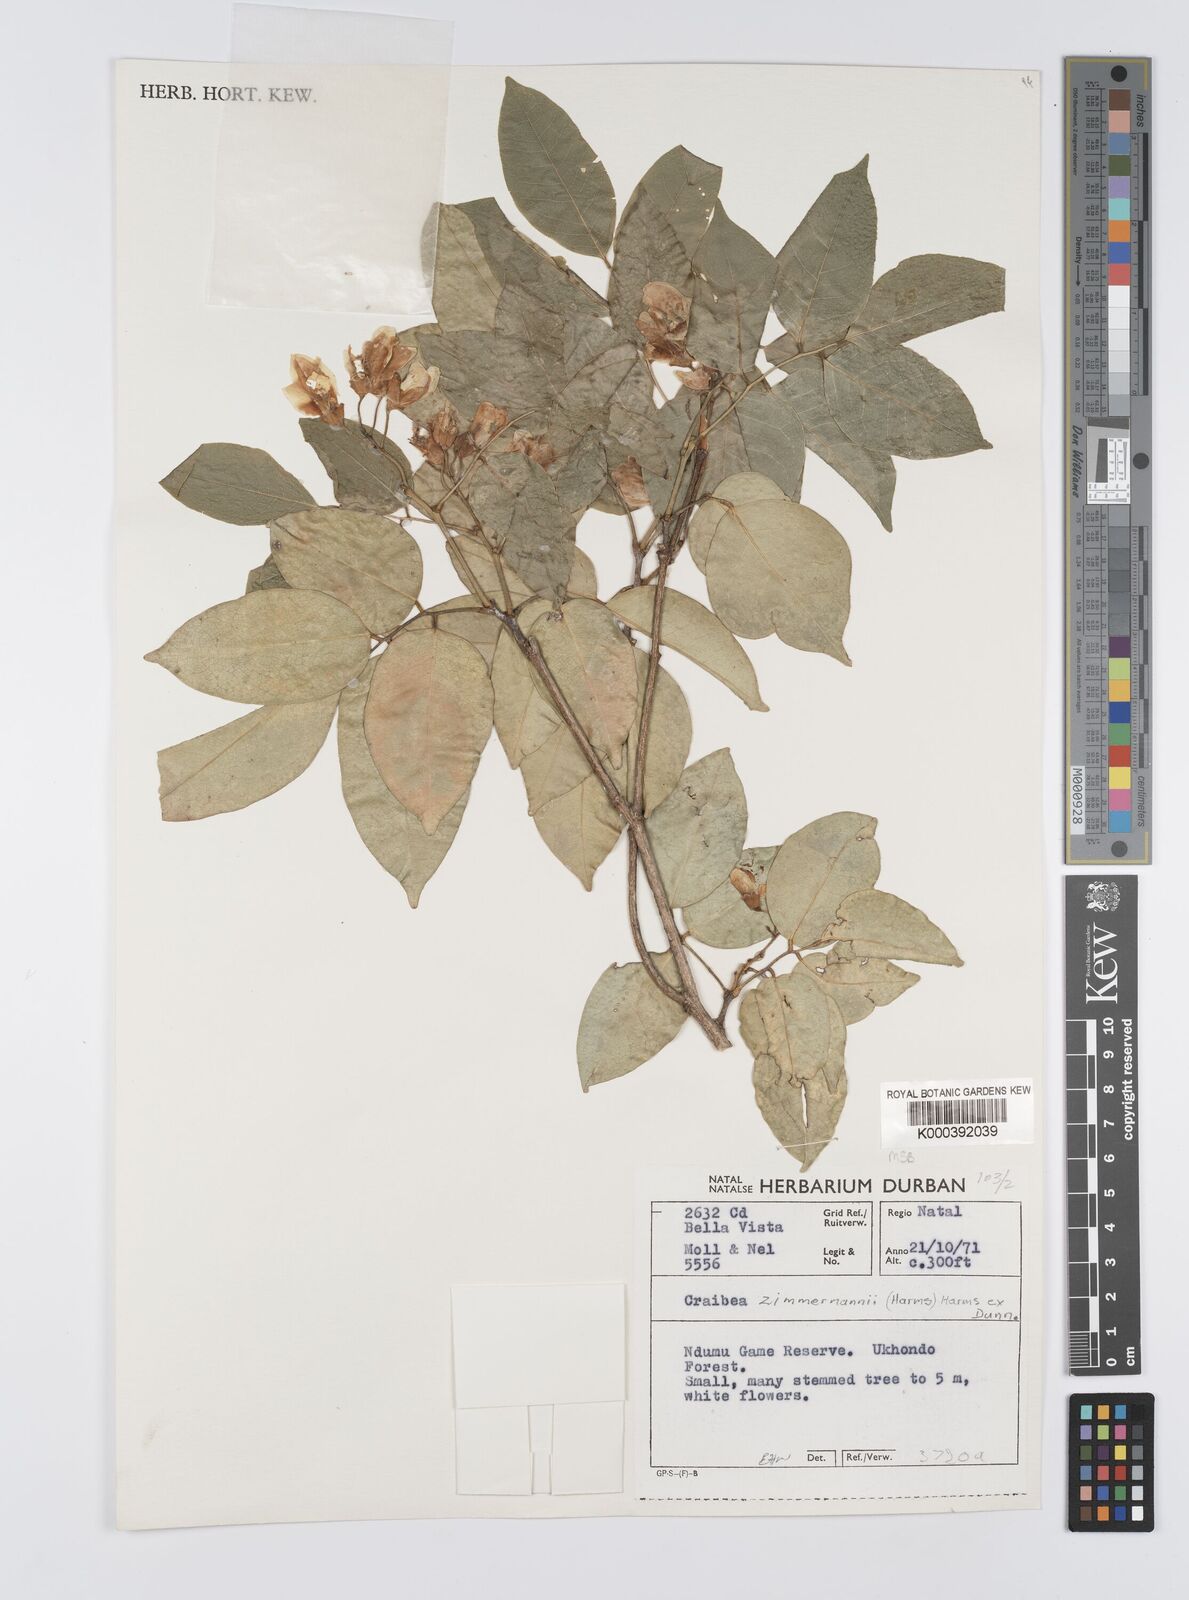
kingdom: Plantae
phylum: Tracheophyta
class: Magnoliopsida
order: Fabales
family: Fabaceae
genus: Craibia
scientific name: Craibia zimmermannii
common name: Sandforest pea-wood
